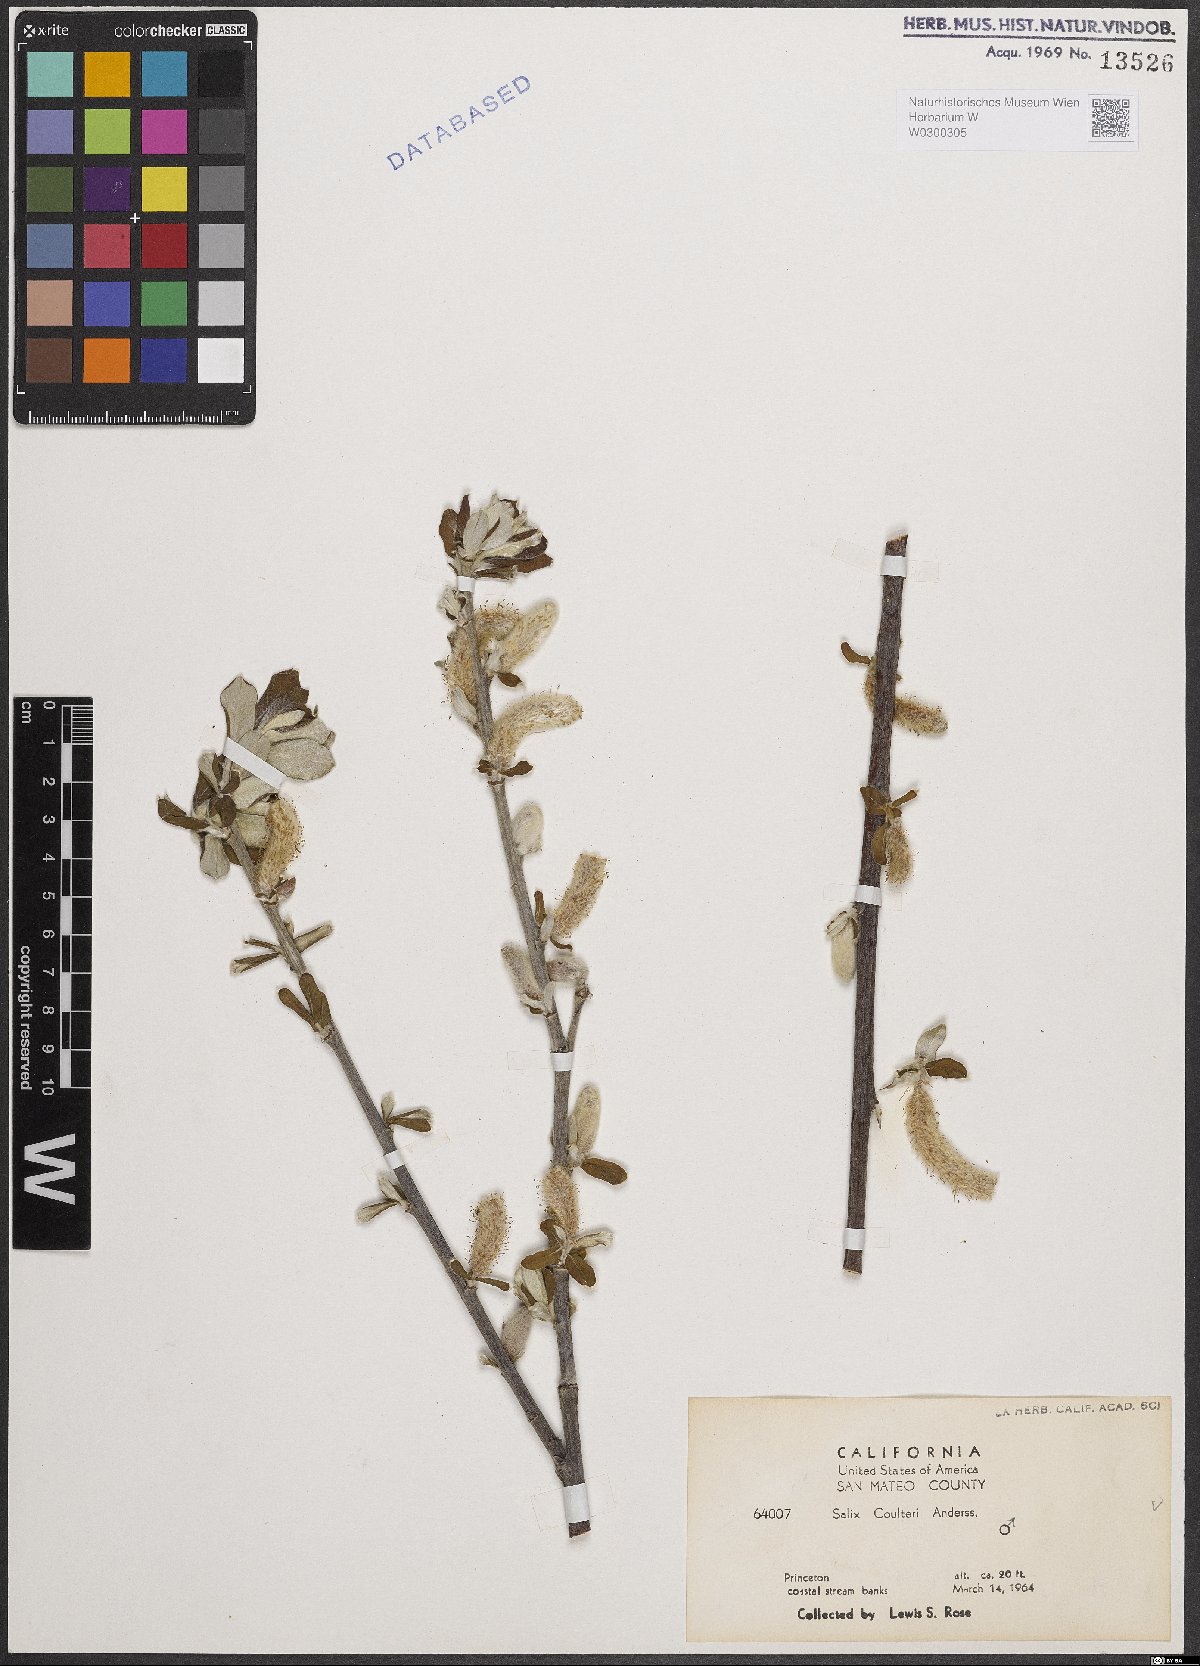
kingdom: Plantae
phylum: Tracheophyta
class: Magnoliopsida
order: Malpighiales
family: Salicaceae
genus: Salix
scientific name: Salix sitchensis
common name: Sitka willow
